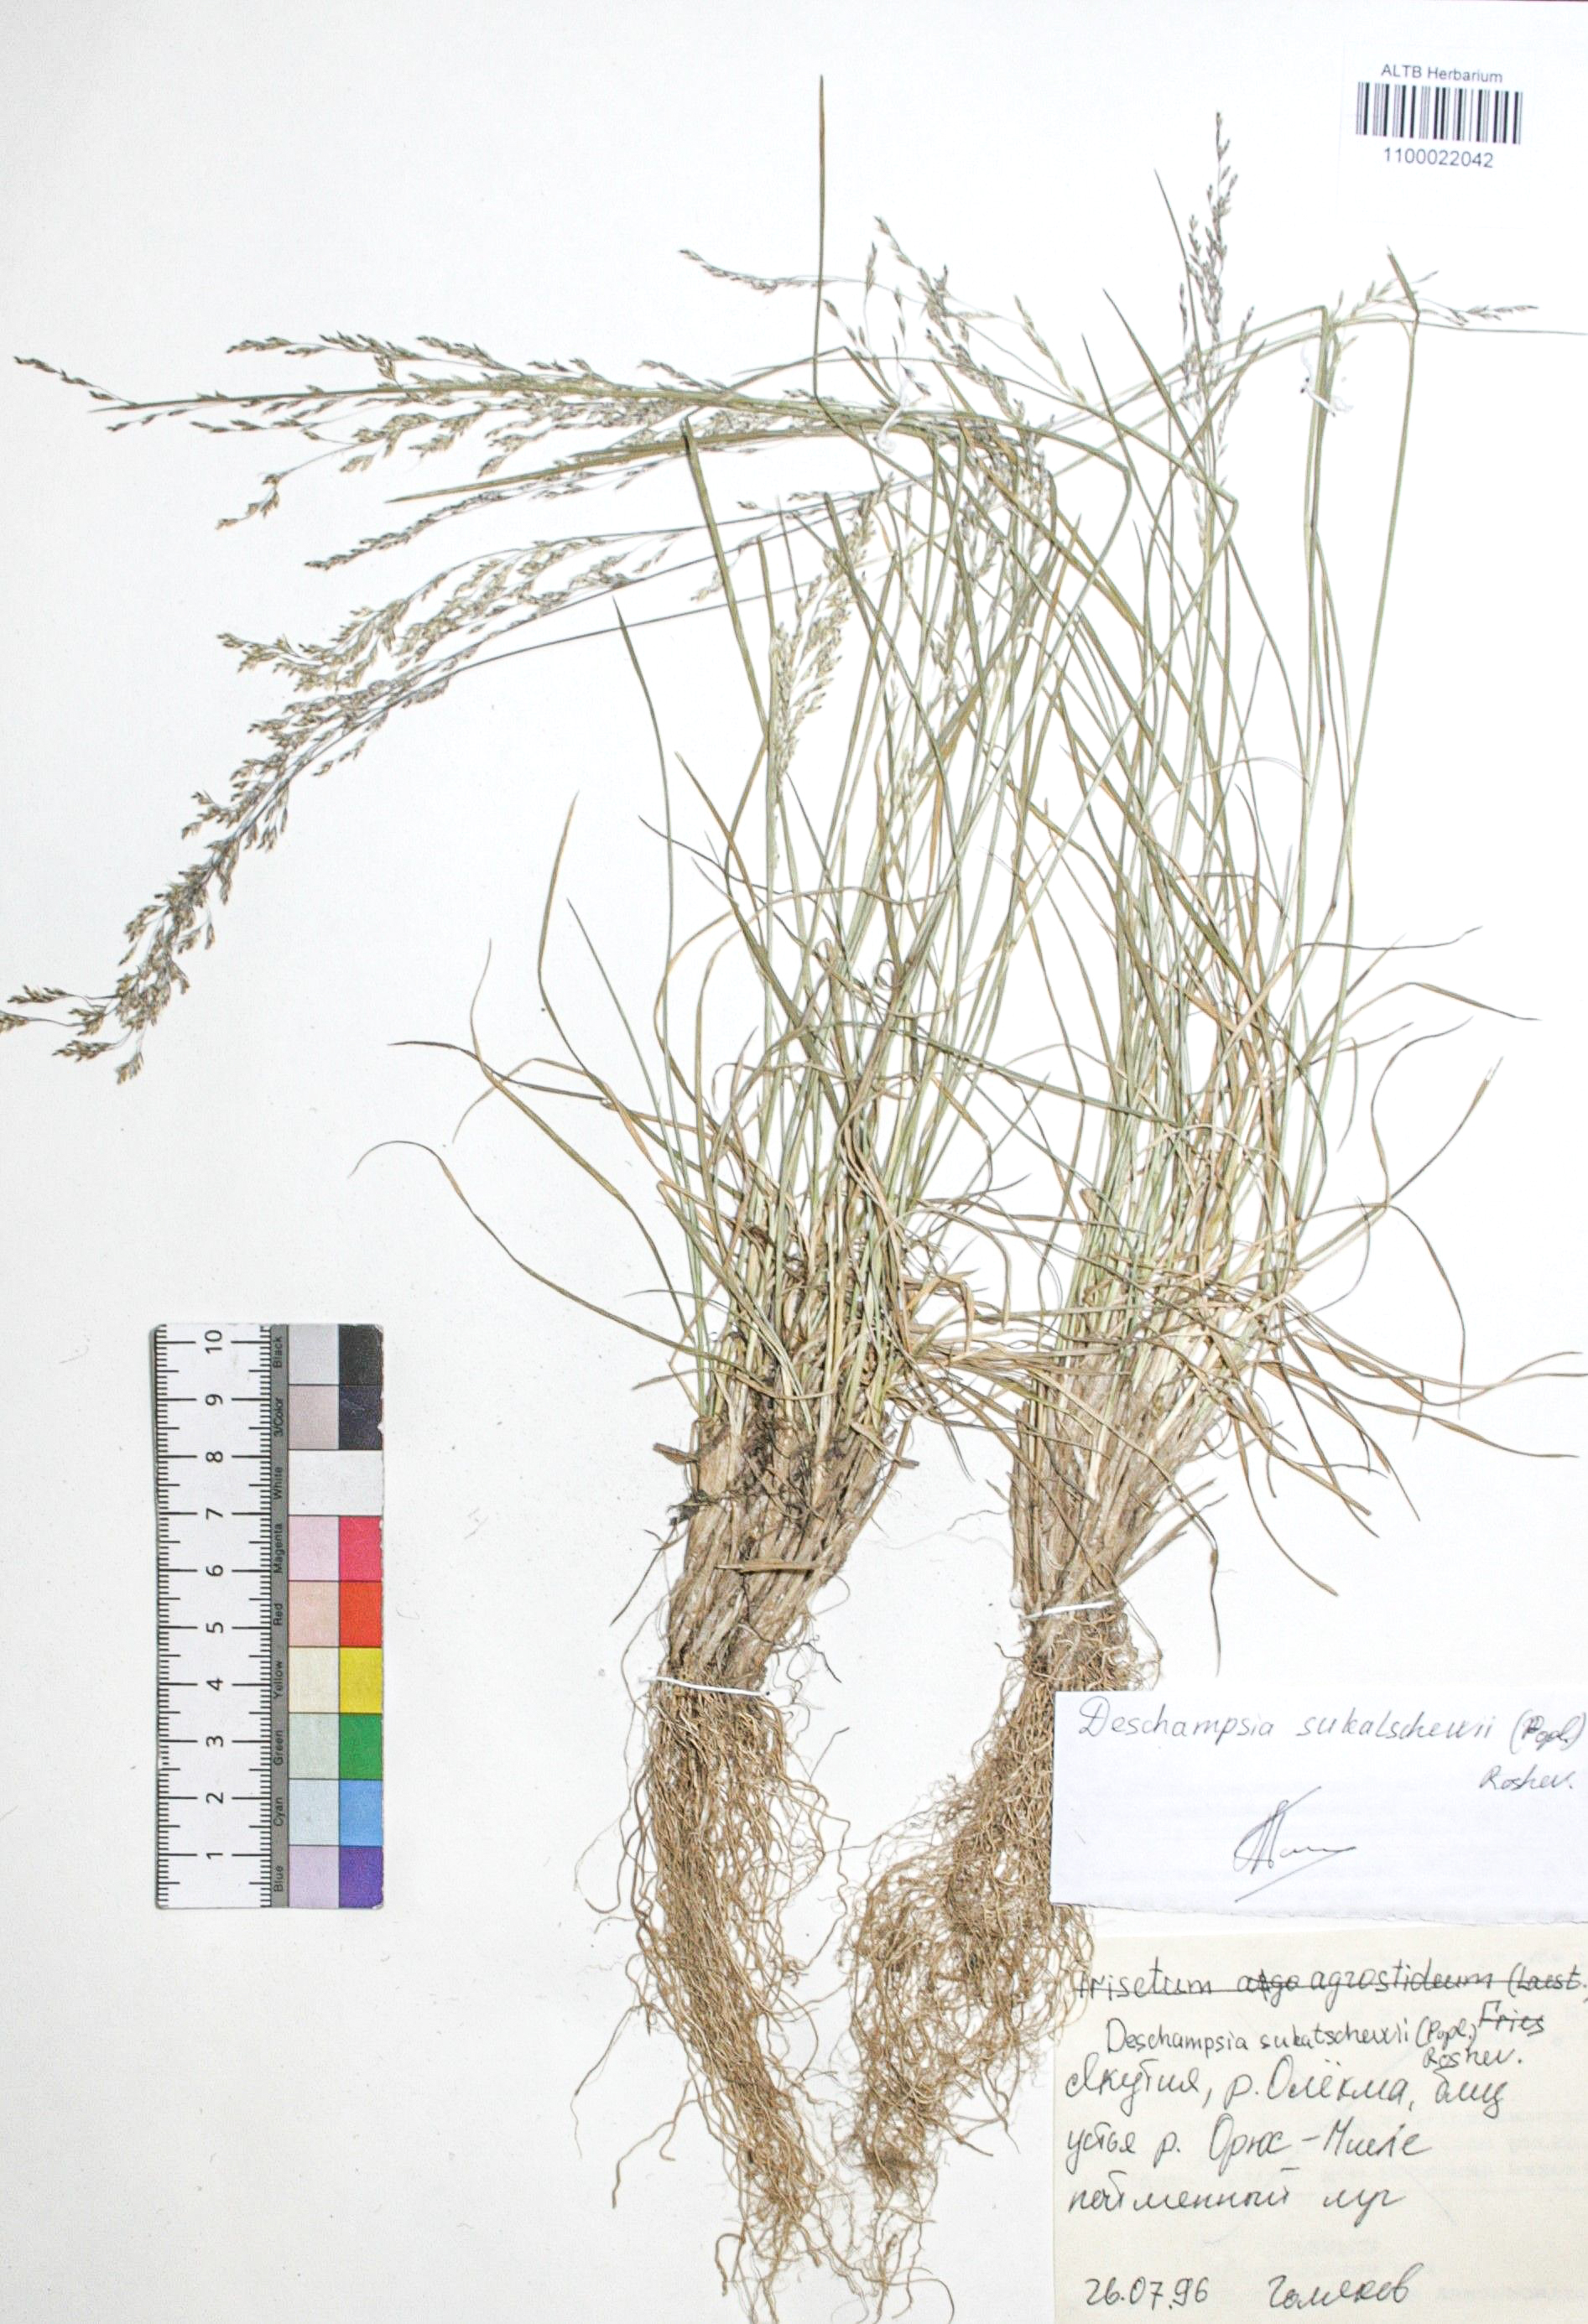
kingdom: Plantae
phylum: Tracheophyta
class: Liliopsida
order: Poales
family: Poaceae
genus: Deschampsia
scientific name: Deschampsia cespitosa
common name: Tufted hair-grass
